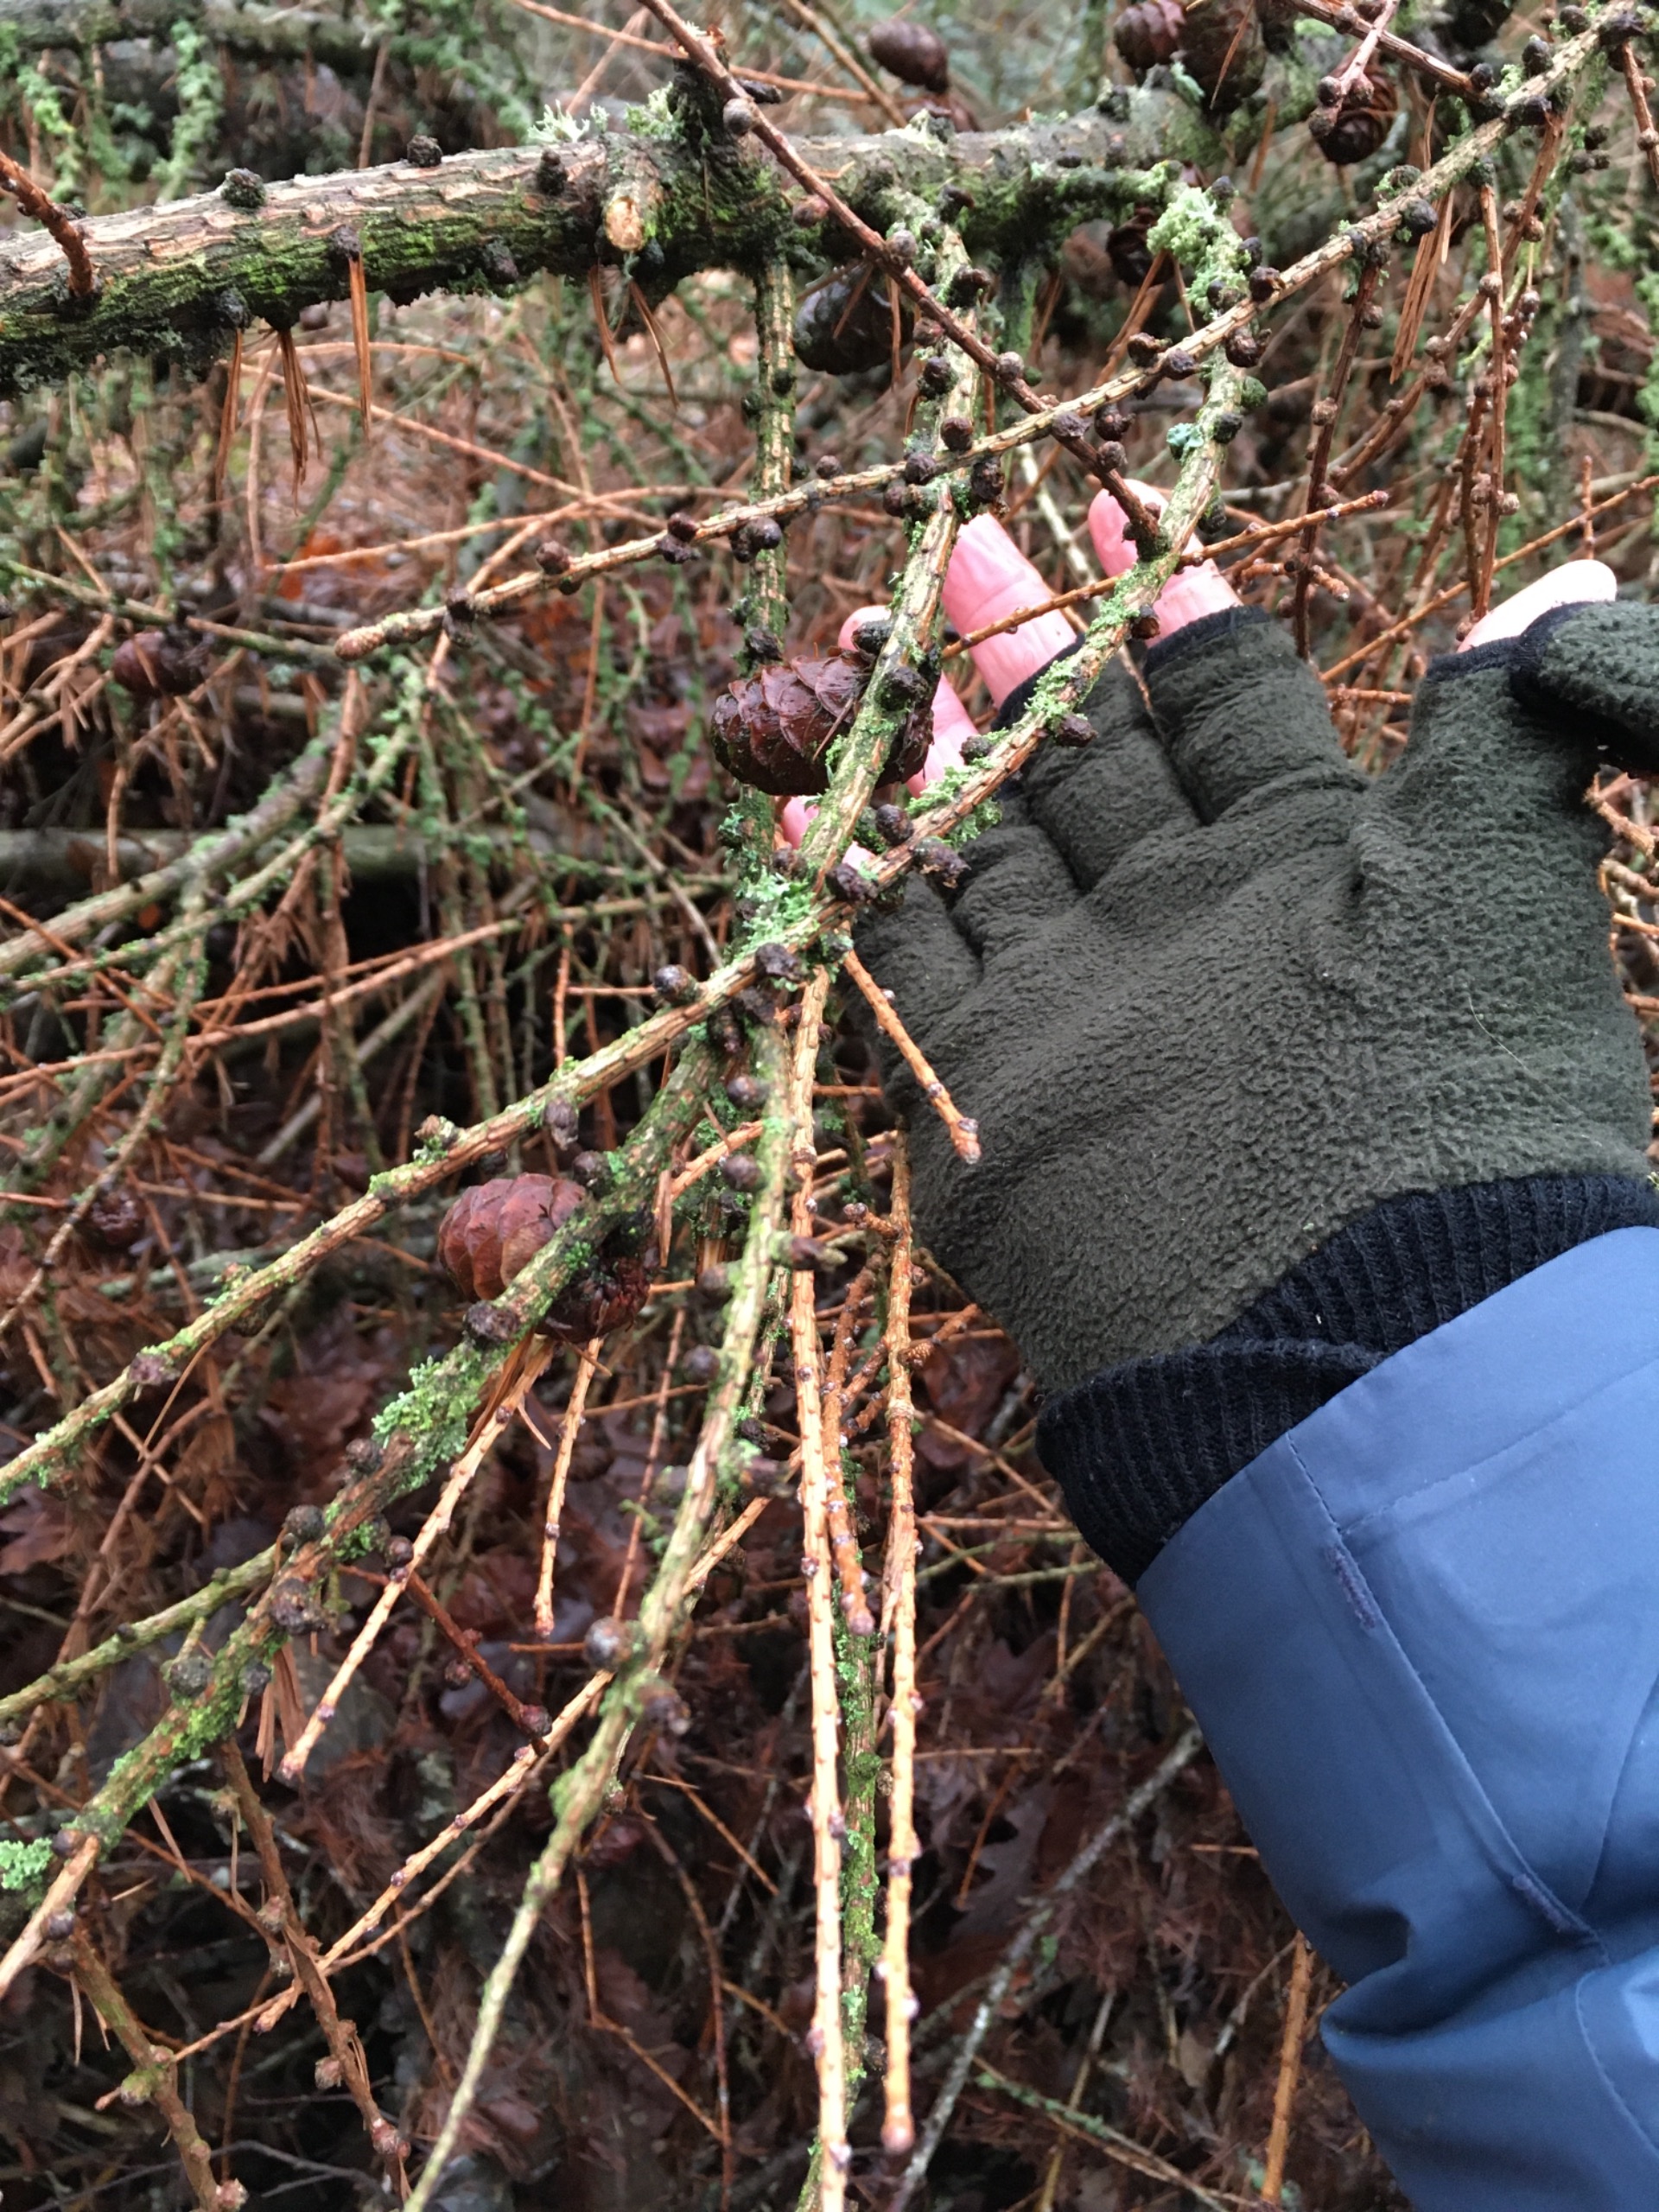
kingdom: Plantae
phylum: Tracheophyta
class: Pinopsida
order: Pinales
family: Pinaceae
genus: Larix
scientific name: Larix marschlinsii
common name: Hybrid-lærk
